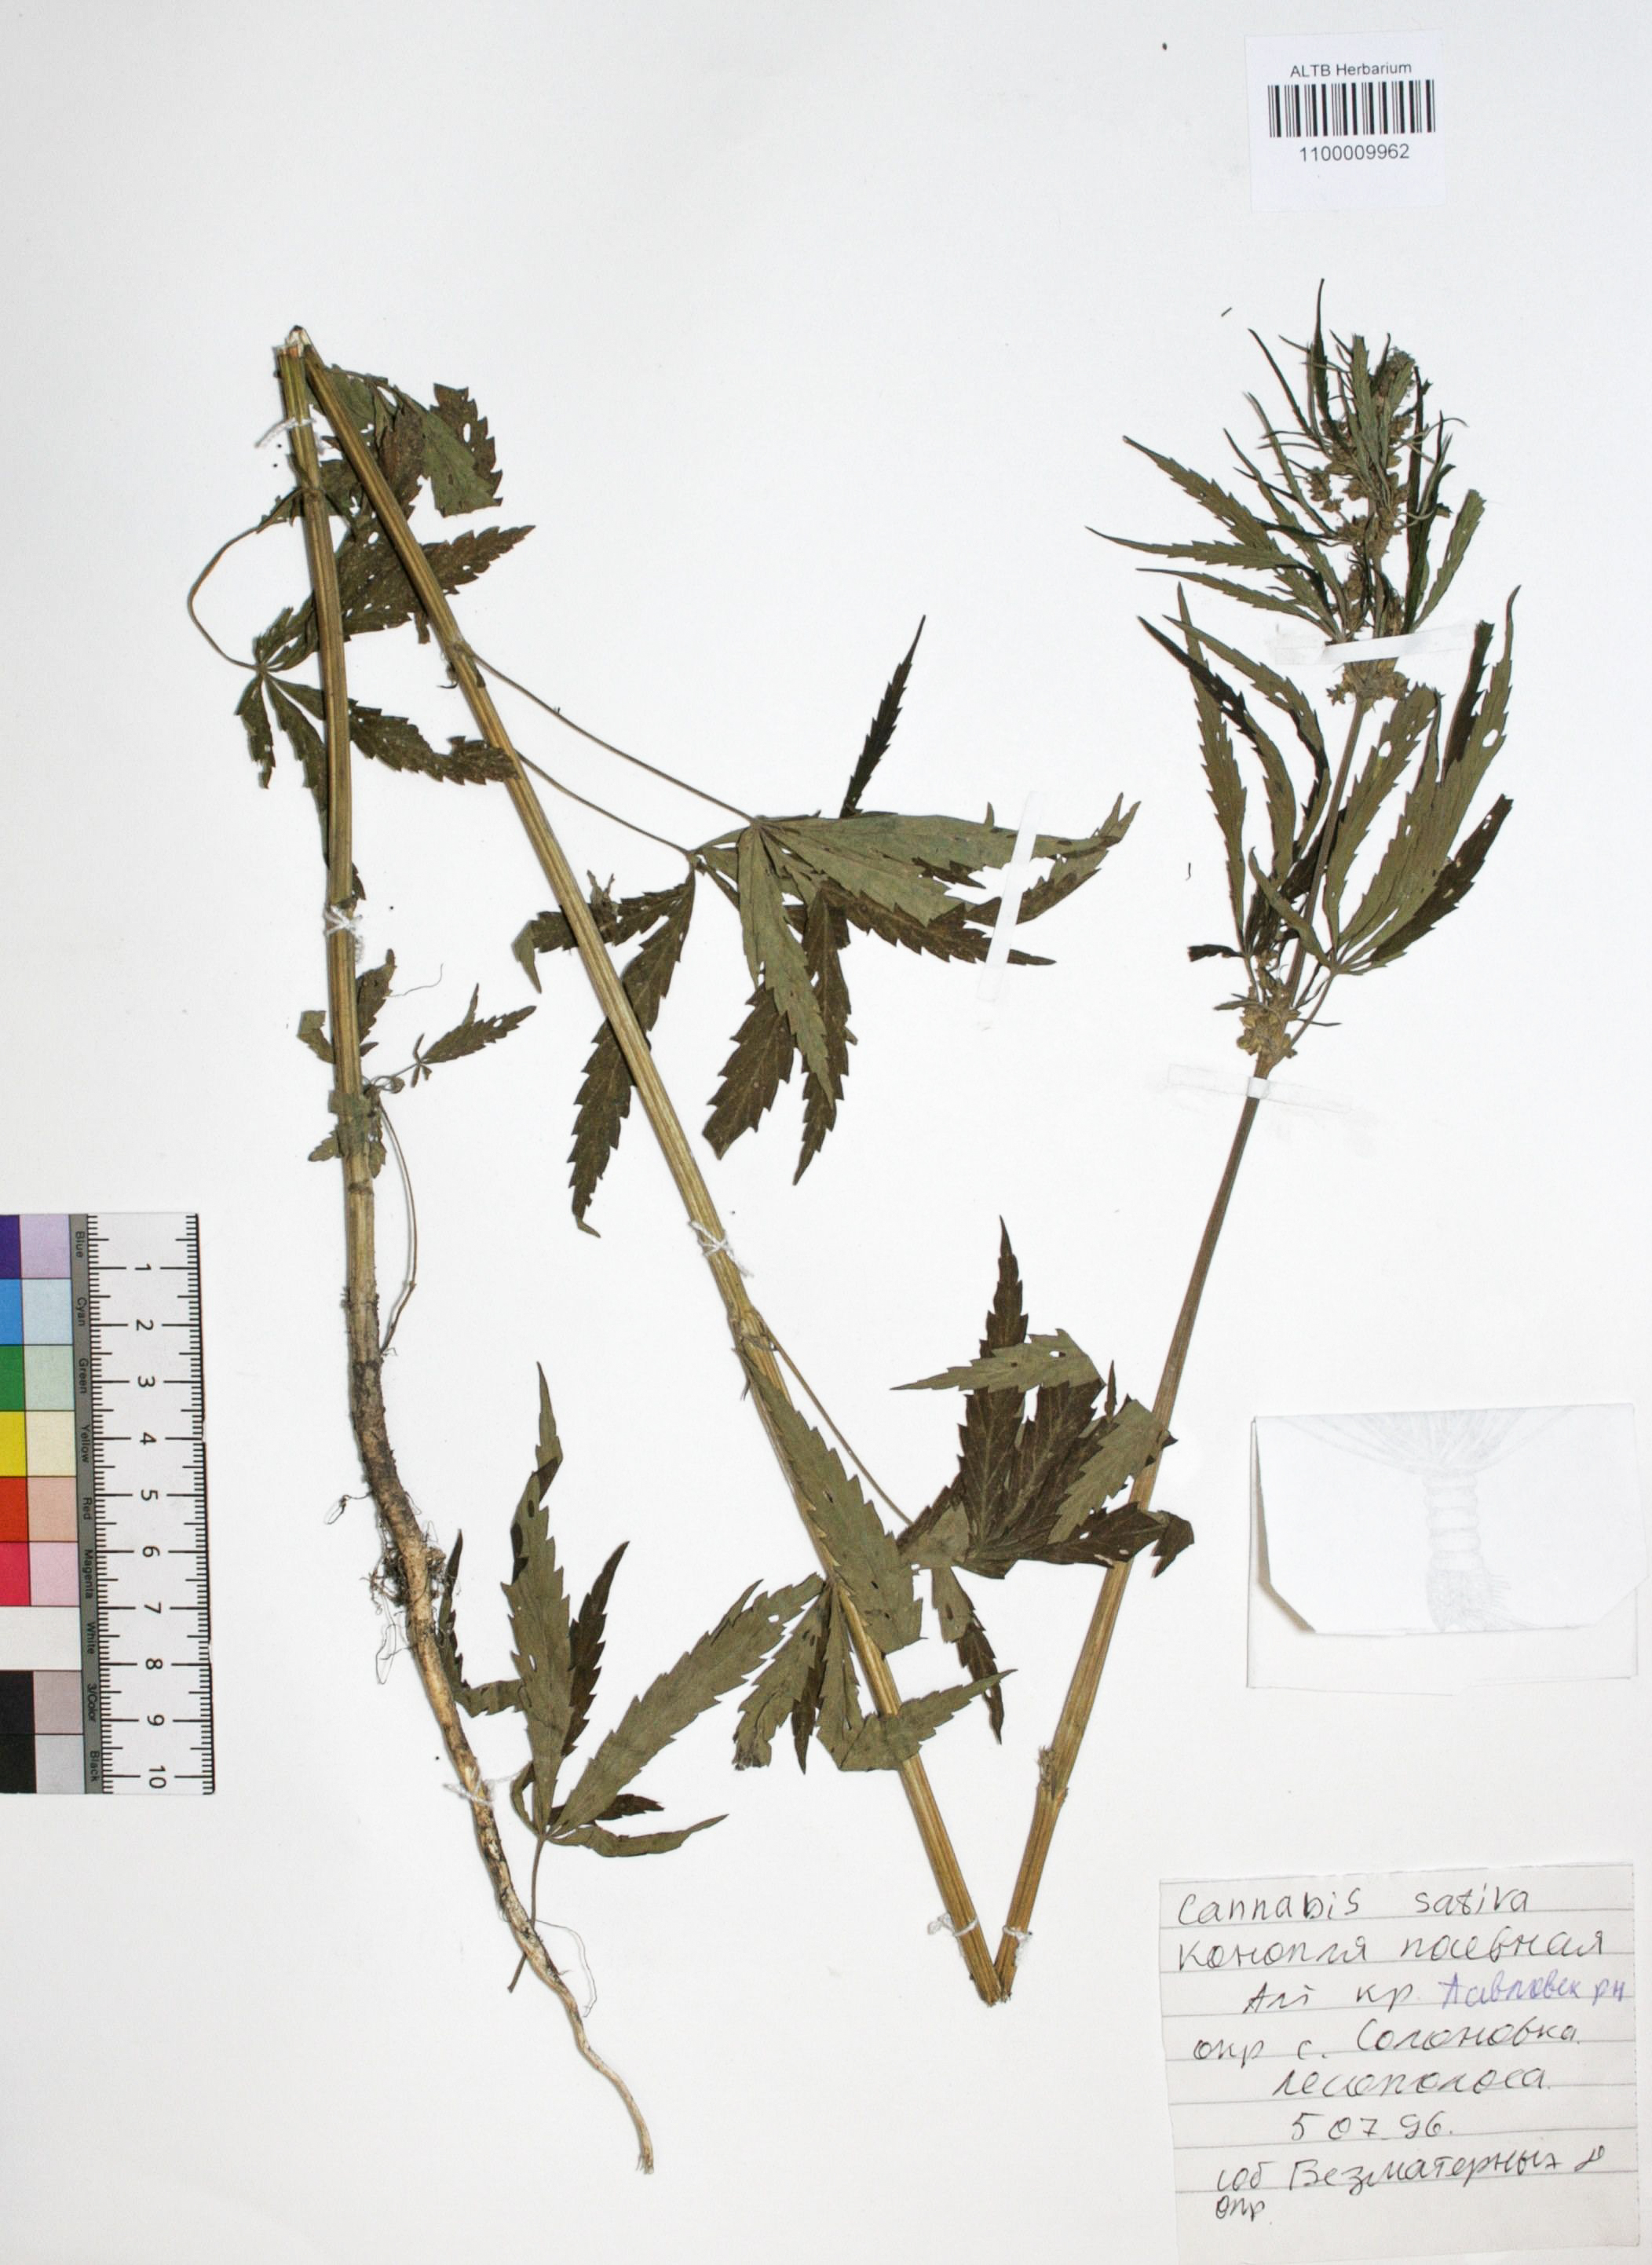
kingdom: Plantae
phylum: Tracheophyta
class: Magnoliopsida
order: Rosales
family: Cannabaceae
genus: Cannabis
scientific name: Cannabis sativa
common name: Hemp
